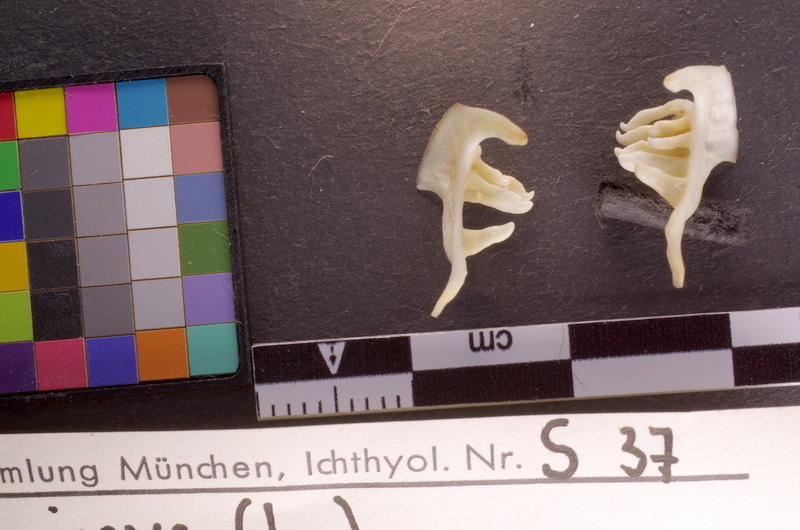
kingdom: Animalia
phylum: Chordata
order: Cypriniformes
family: Cyprinidae
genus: Leuciscus
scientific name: Leuciscus leuciscus
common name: Dace
